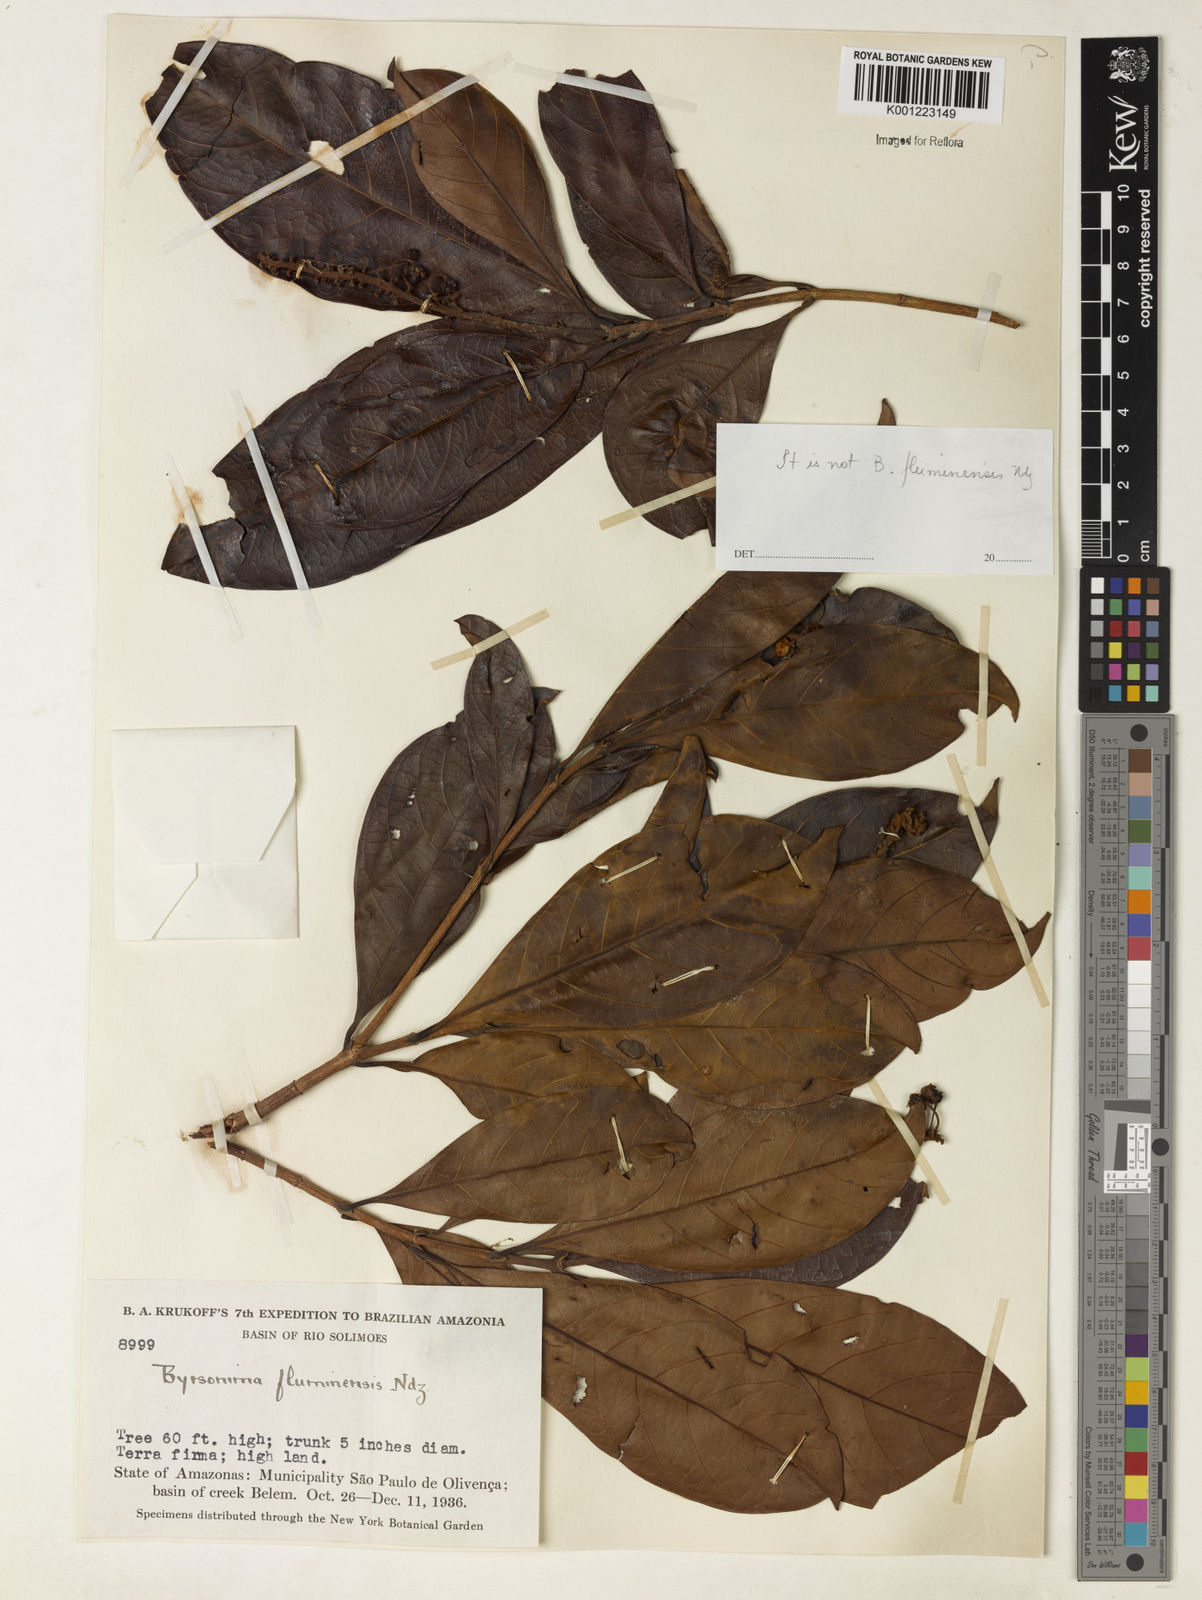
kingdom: Plantae
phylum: Tracheophyta
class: Magnoliopsida
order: Malpighiales
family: Malpighiaceae
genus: Byrsonima
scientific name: Byrsonima
